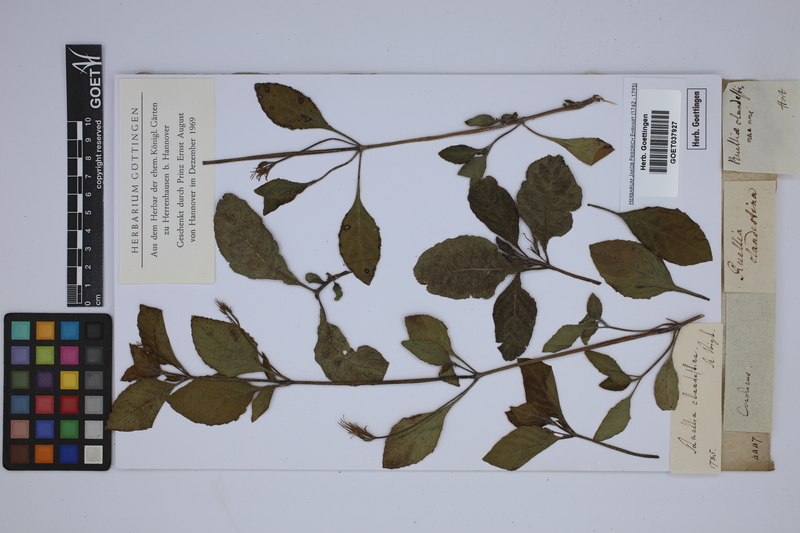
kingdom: Plantae
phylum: Tracheophyta
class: Magnoliopsida
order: Lamiales
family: Acanthaceae
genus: Ruellia
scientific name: Ruellia tuberosa
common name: Devil's bit
